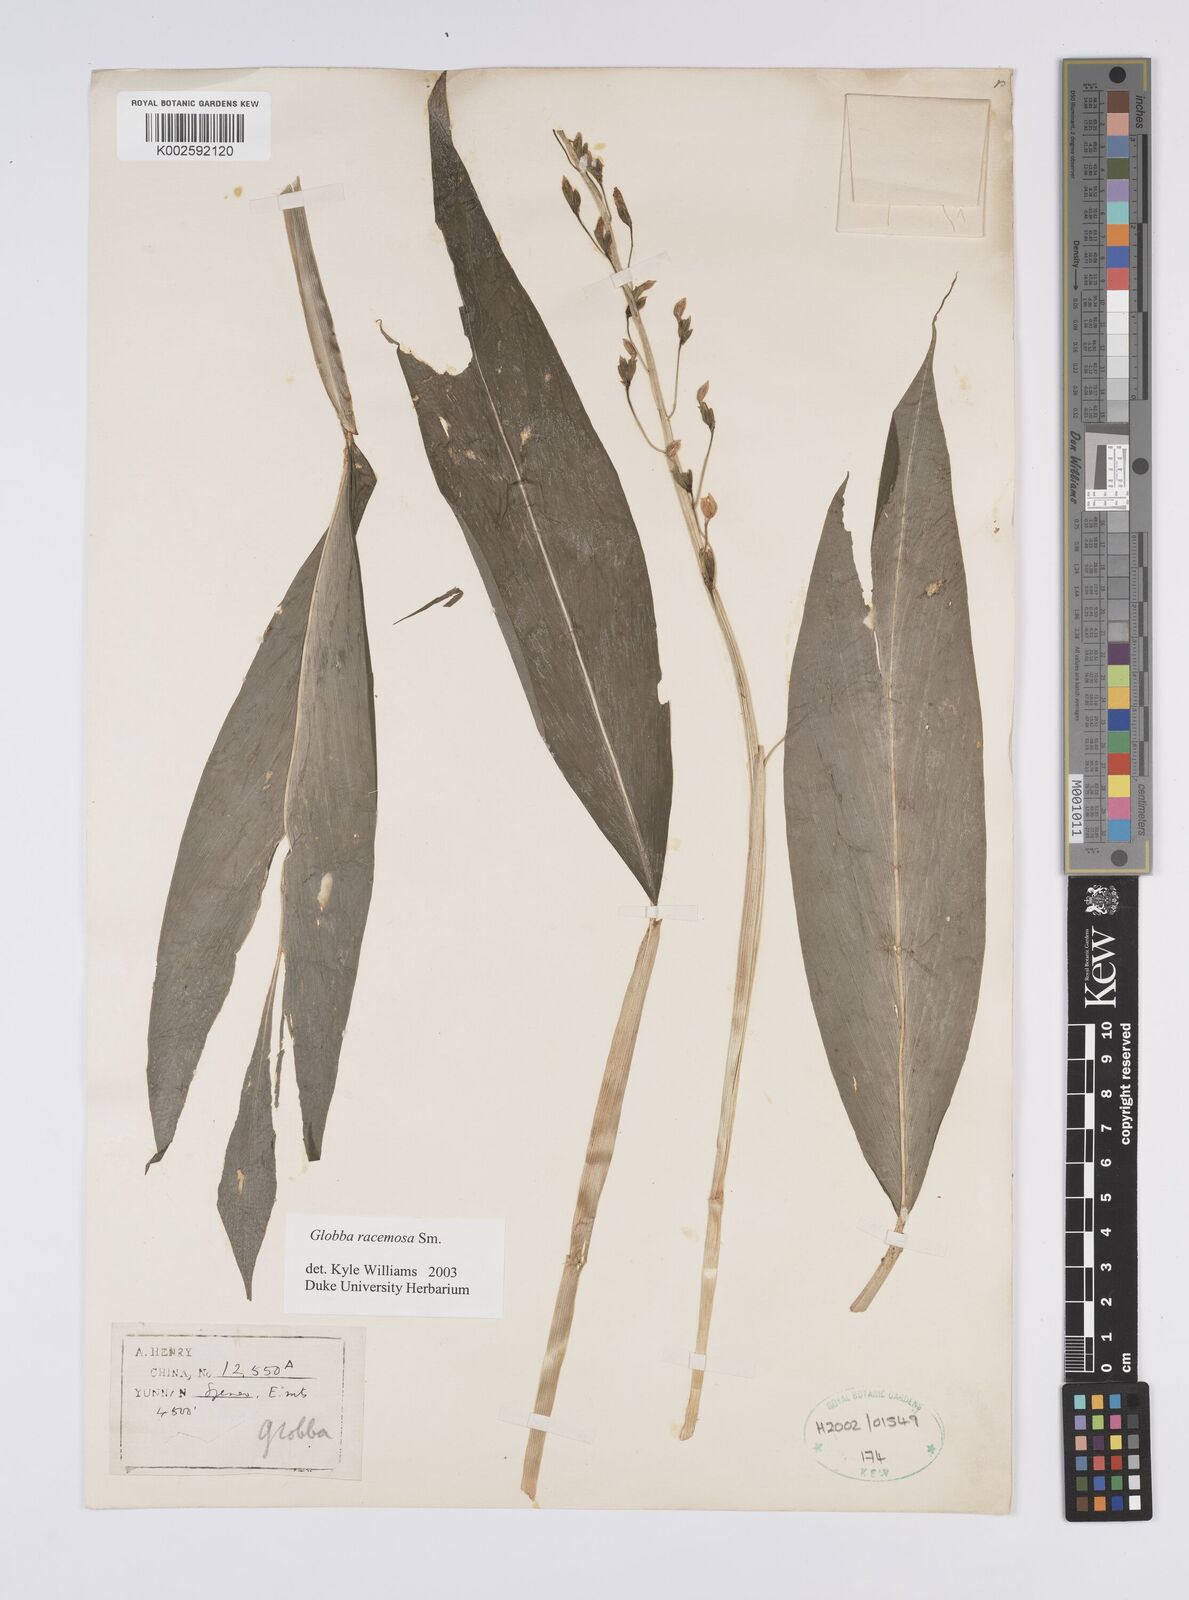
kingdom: Plantae
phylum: Tracheophyta
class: Liliopsida
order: Zingiberales
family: Zingiberaceae
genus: Globba
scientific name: Globba racemosa
